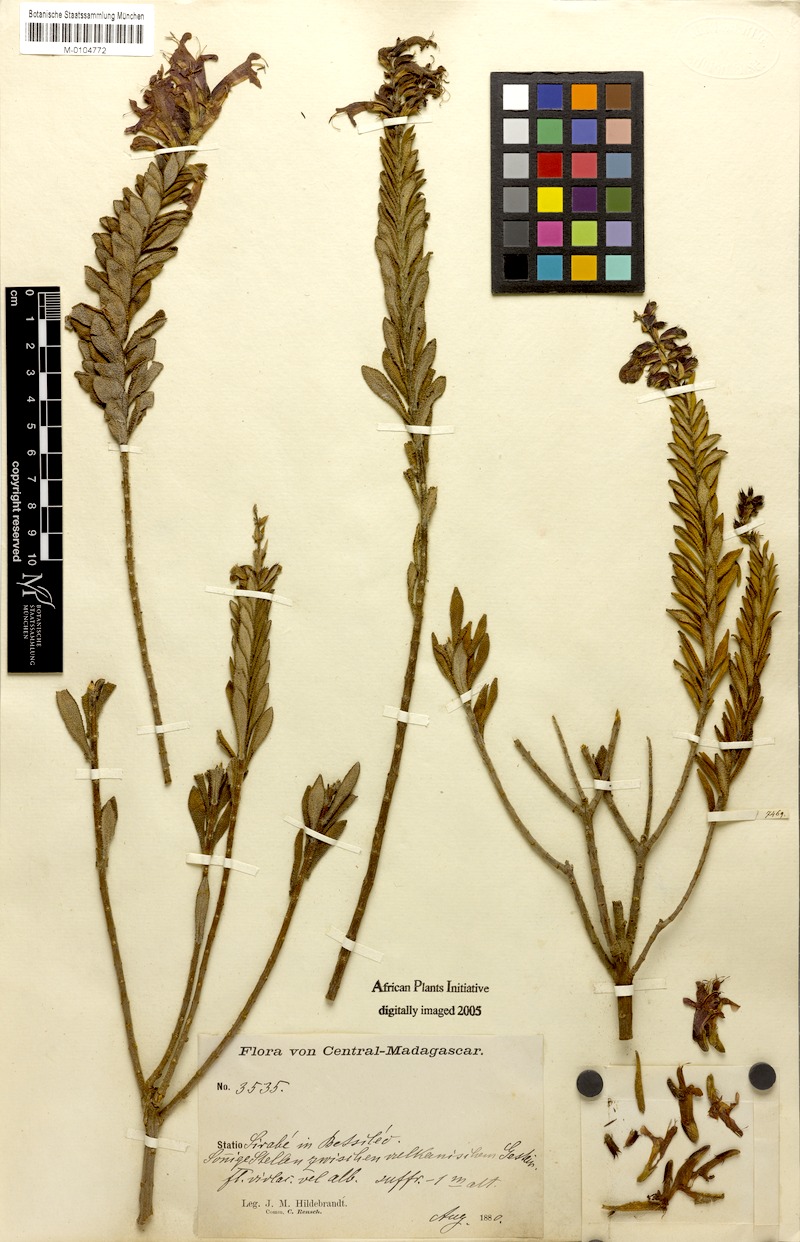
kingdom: Plantae
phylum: Tracheophyta
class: Magnoliopsida
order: Lamiales
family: Lamiaceae
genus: Salvia
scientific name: Salvia sessilifolia
